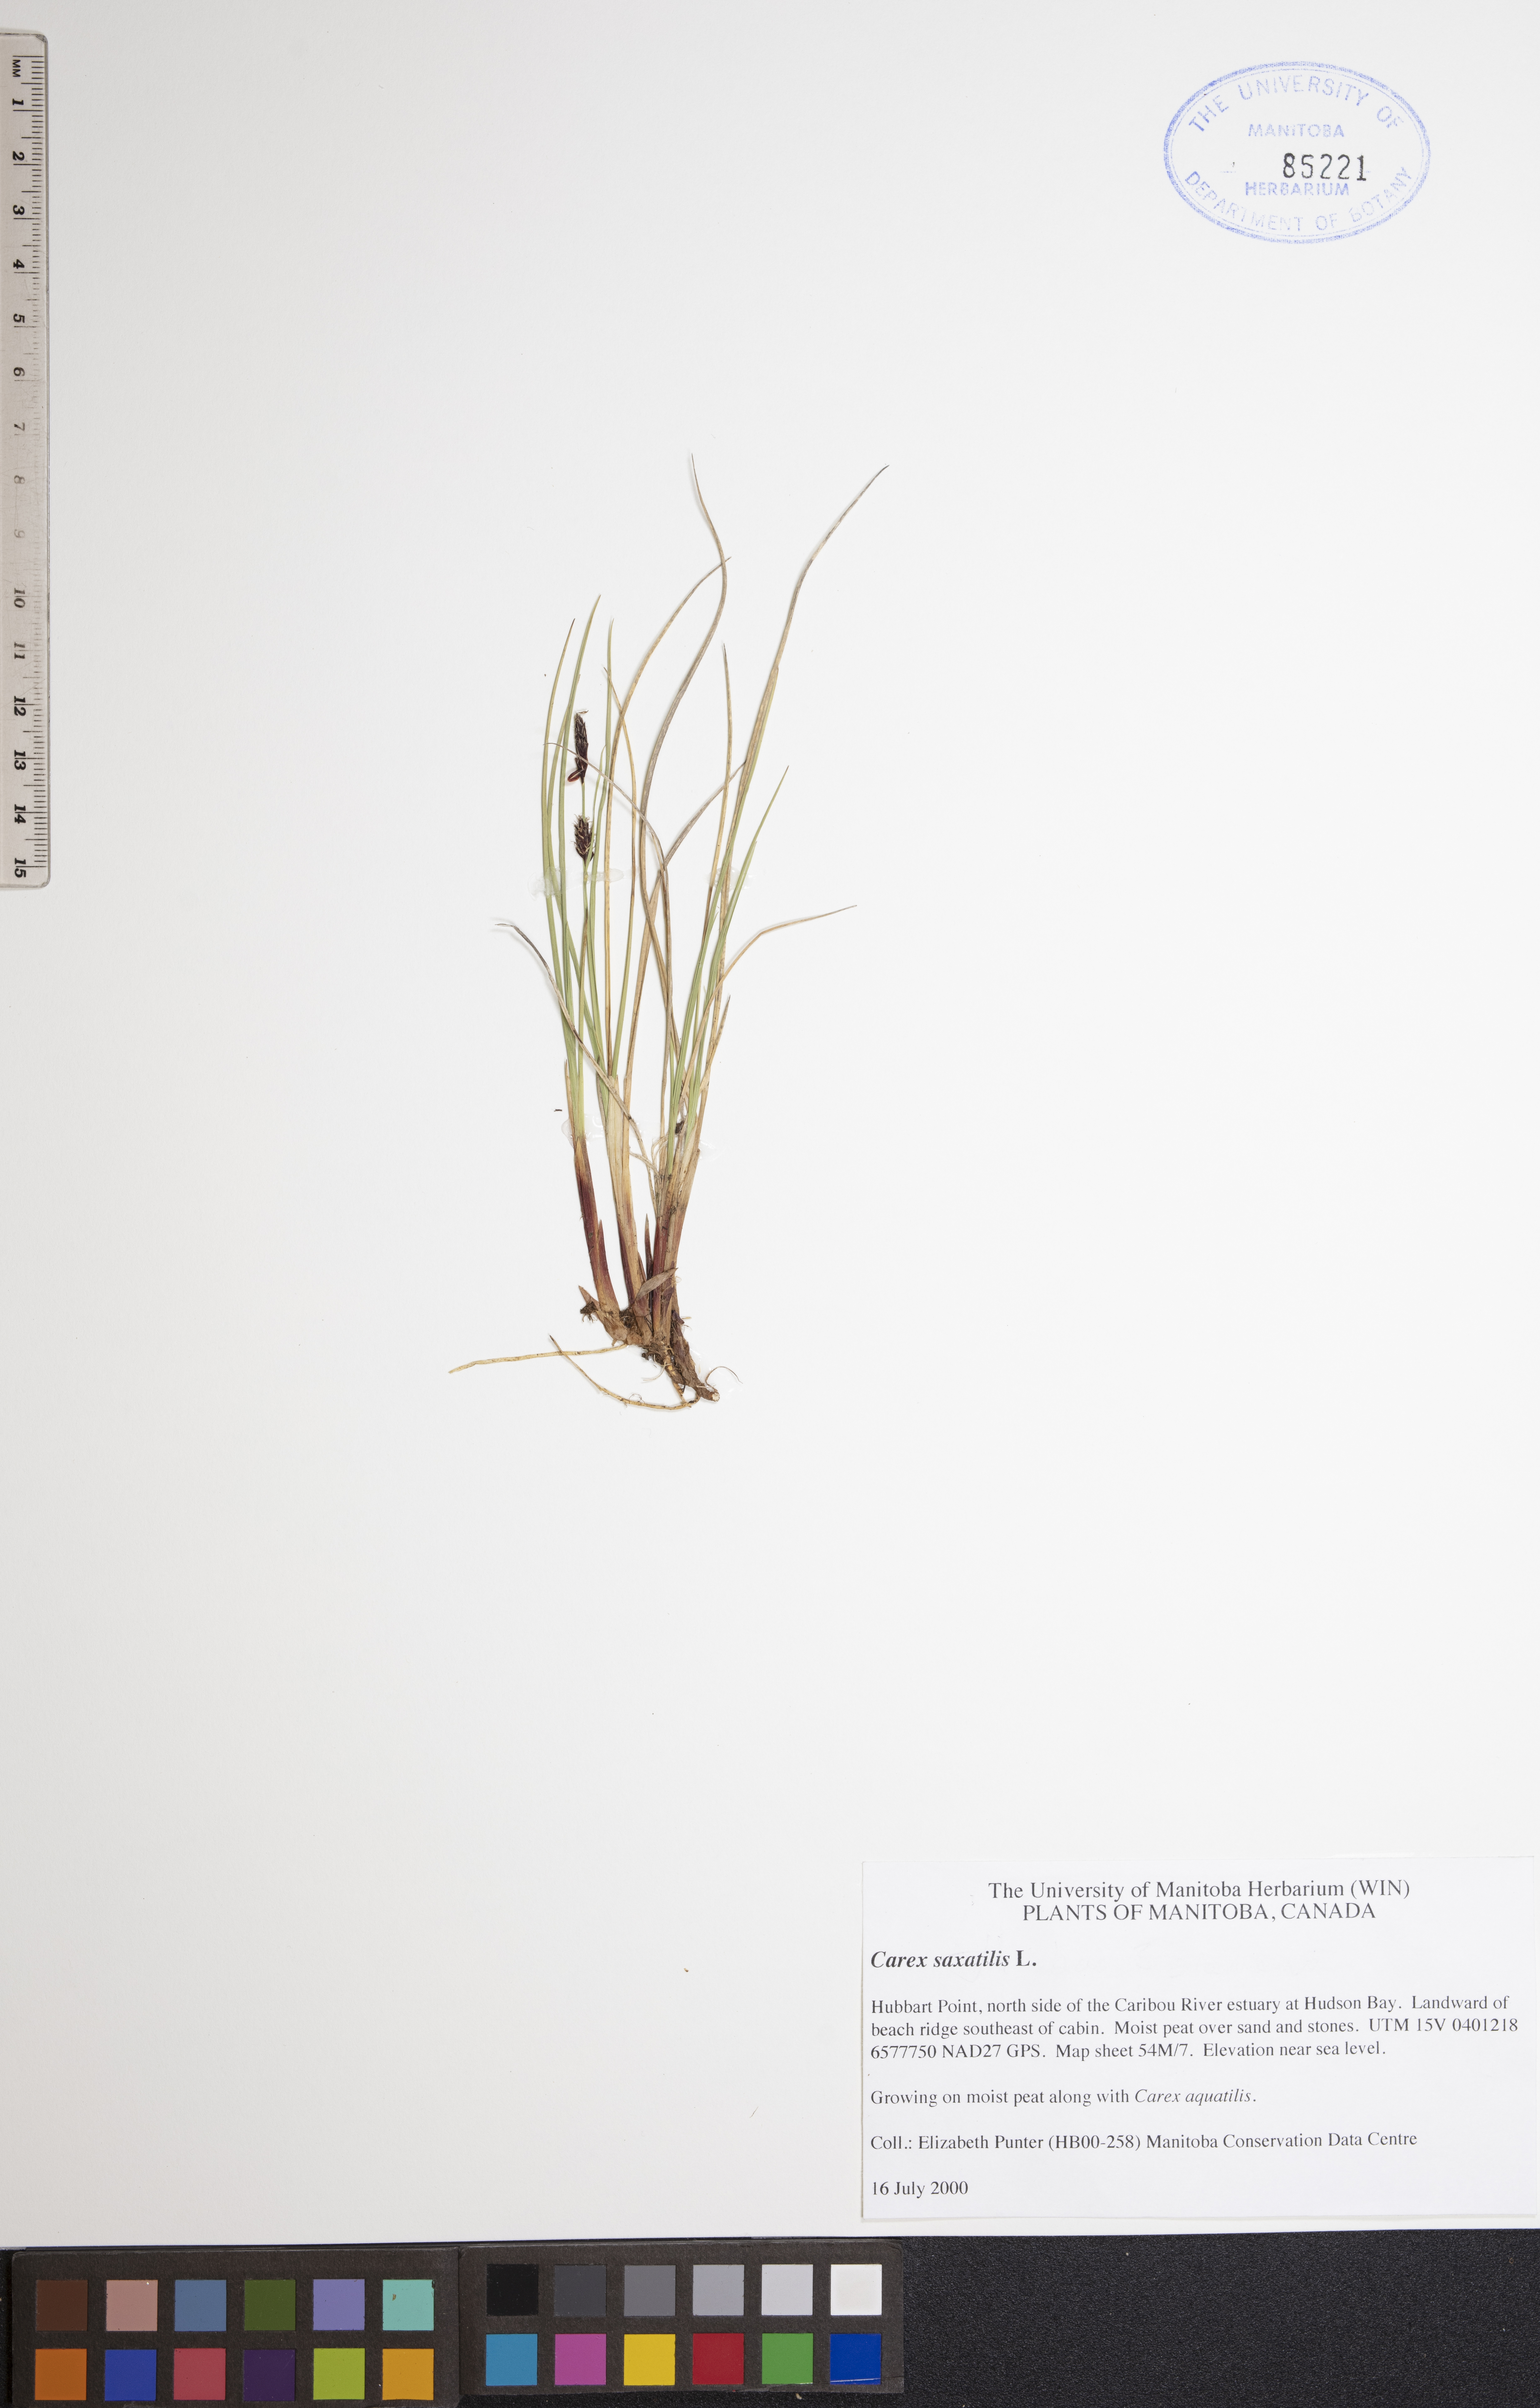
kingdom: Plantae
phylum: Tracheophyta
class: Liliopsida
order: Poales
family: Cyperaceae
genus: Carex
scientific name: Carex saxatilis
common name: Russet sedge
